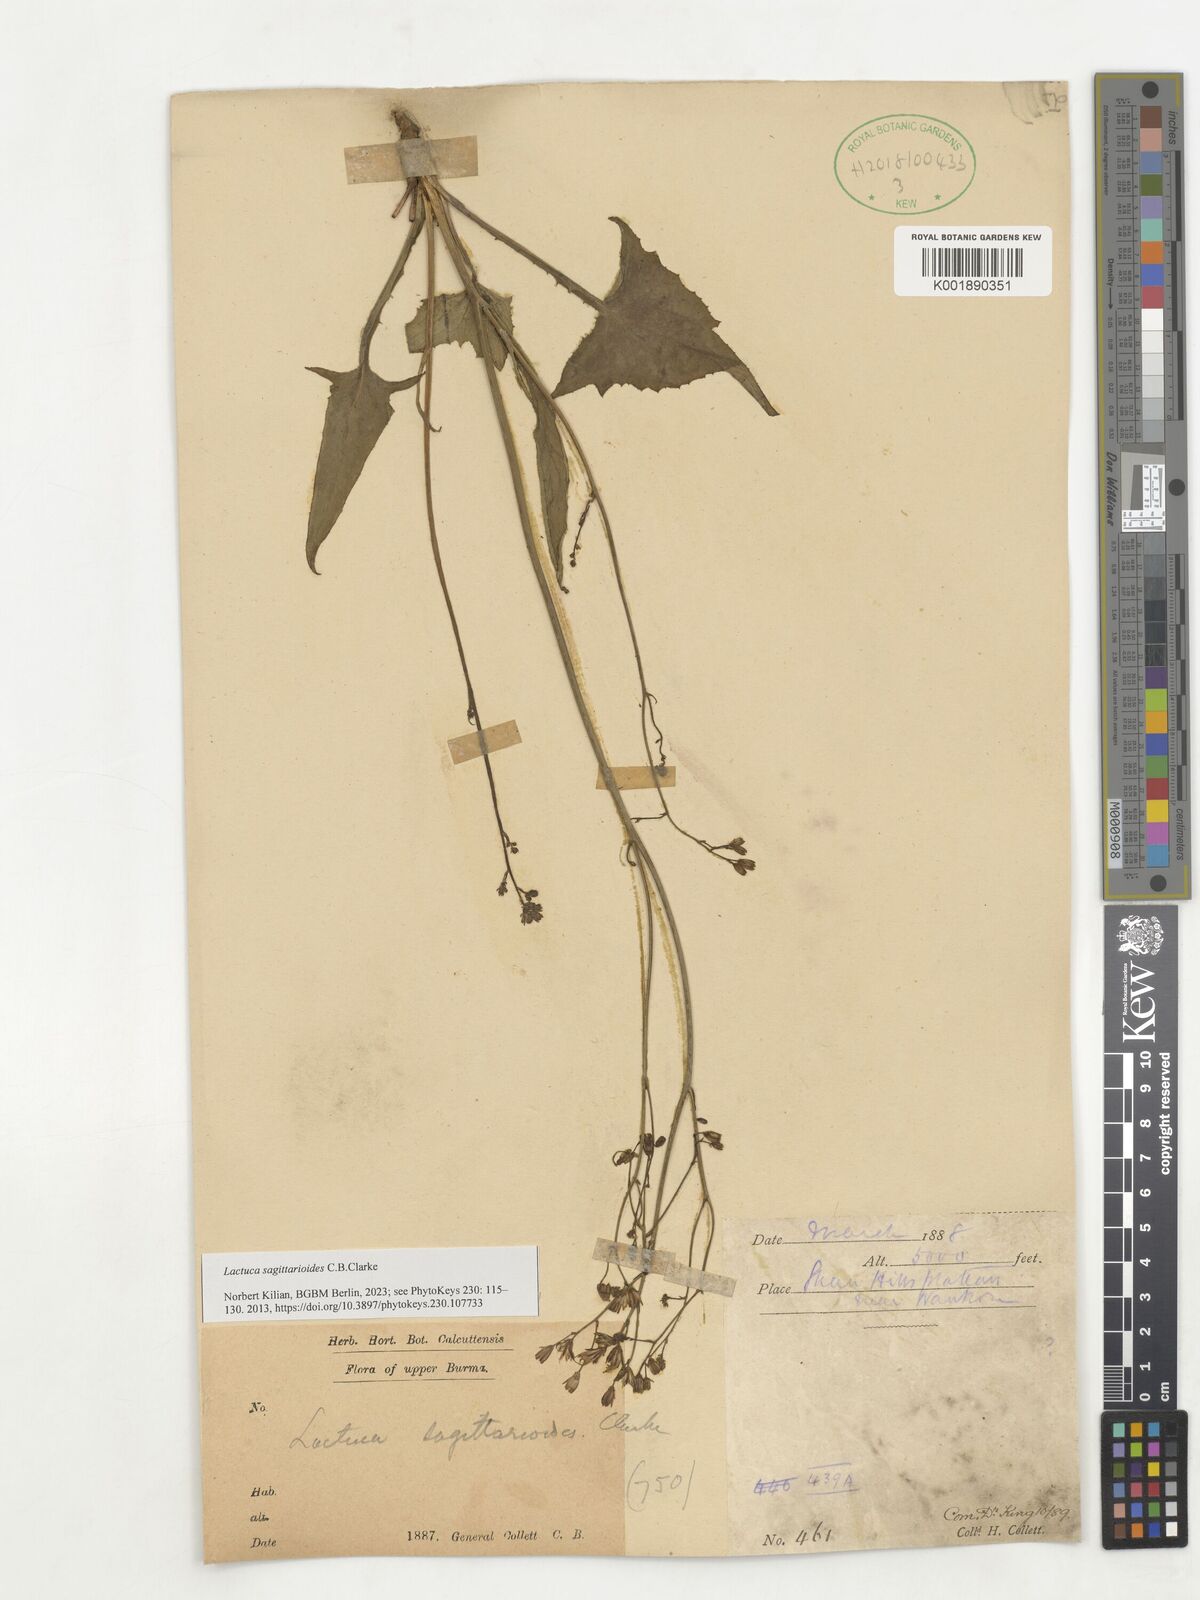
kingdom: Plantae
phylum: Tracheophyta
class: Magnoliopsida
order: Asterales
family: Asteraceae
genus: Ixeridium
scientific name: Ixeridium sagittarioides
